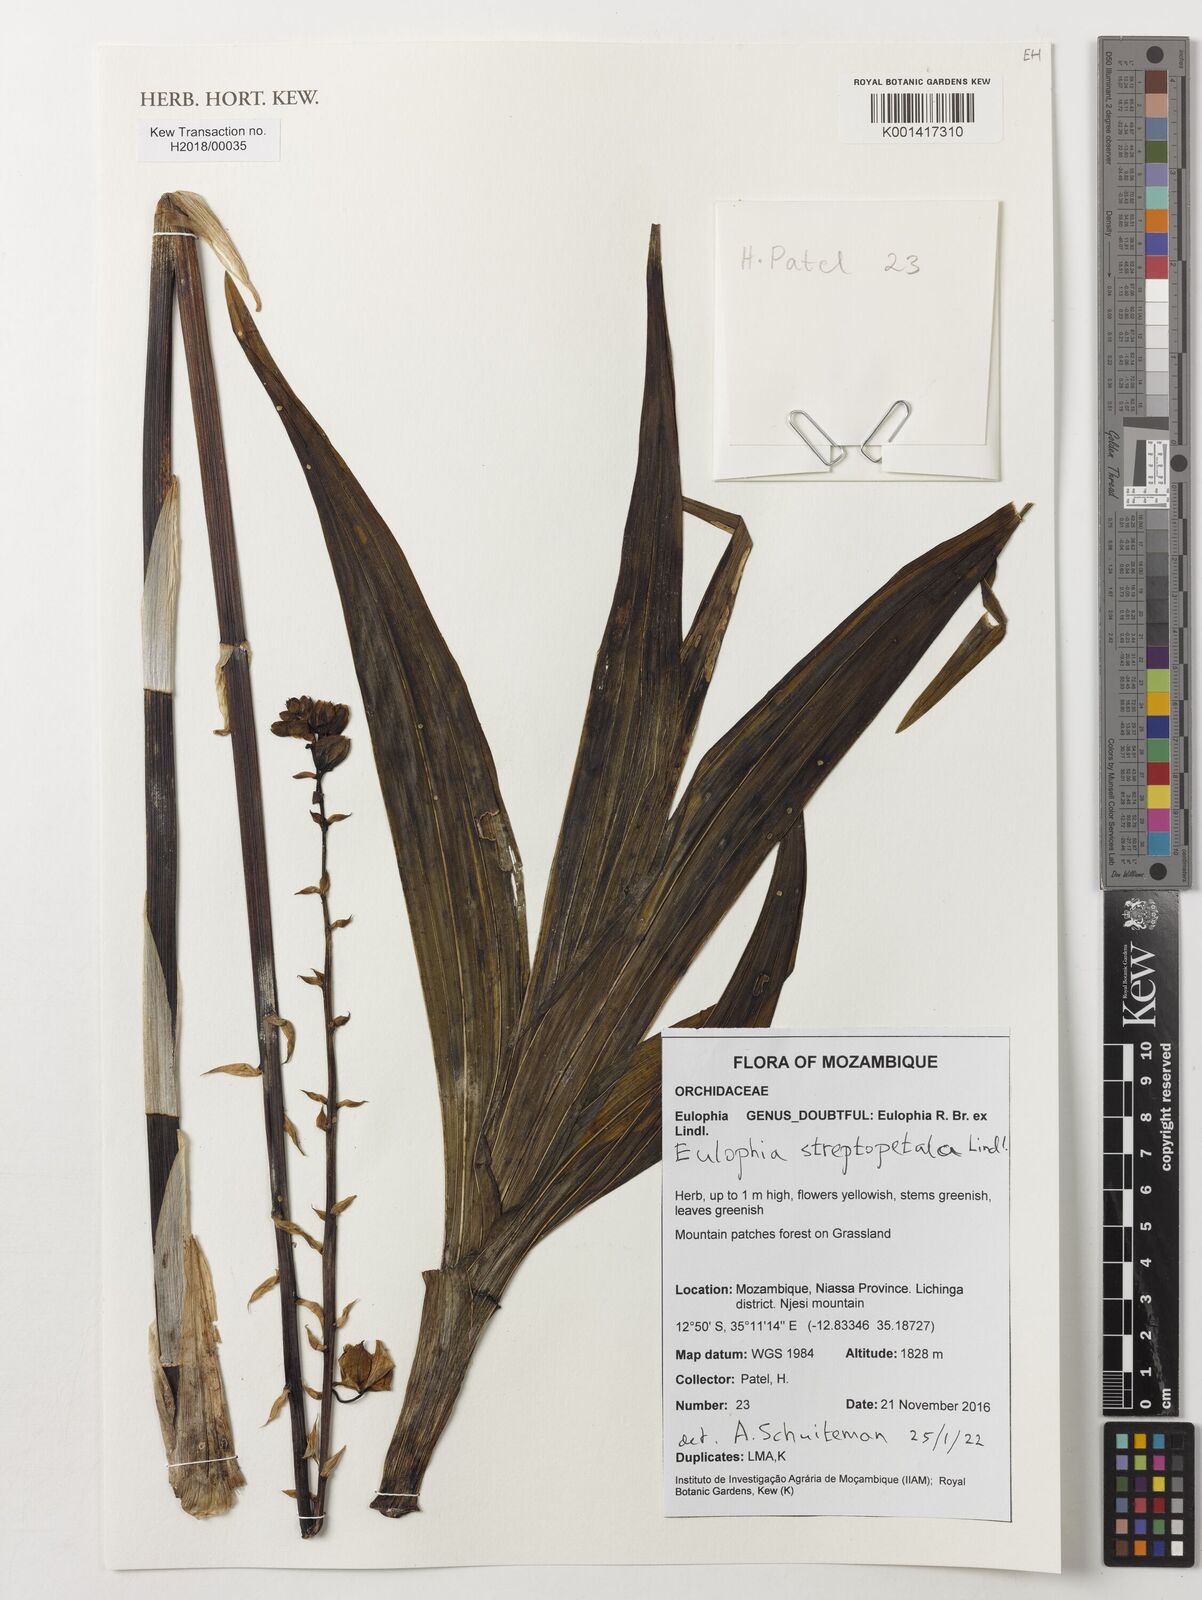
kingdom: Plantae
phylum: Tracheophyta
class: Liliopsida
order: Asparagales
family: Orchidaceae
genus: Eulophia
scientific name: Eulophia streptopetala
